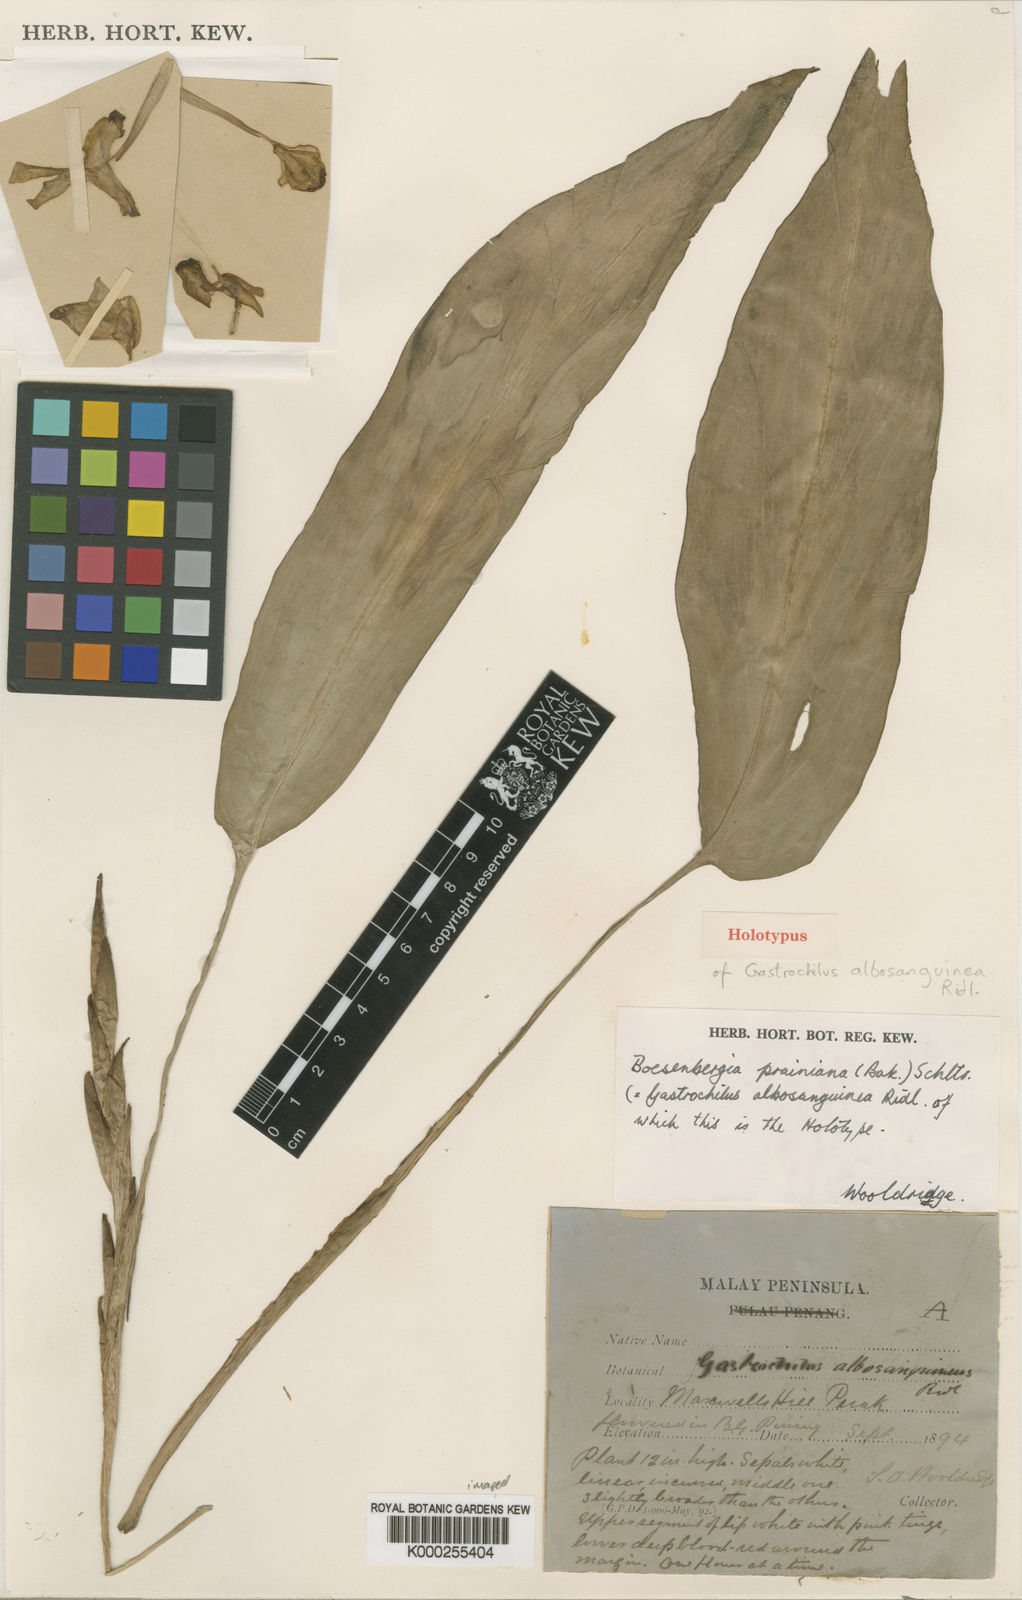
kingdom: Plantae
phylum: Tracheophyta
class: Liliopsida
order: Zingiberales
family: Zingiberaceae
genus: Boesenbergia
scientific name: Boesenbergia prainiana
